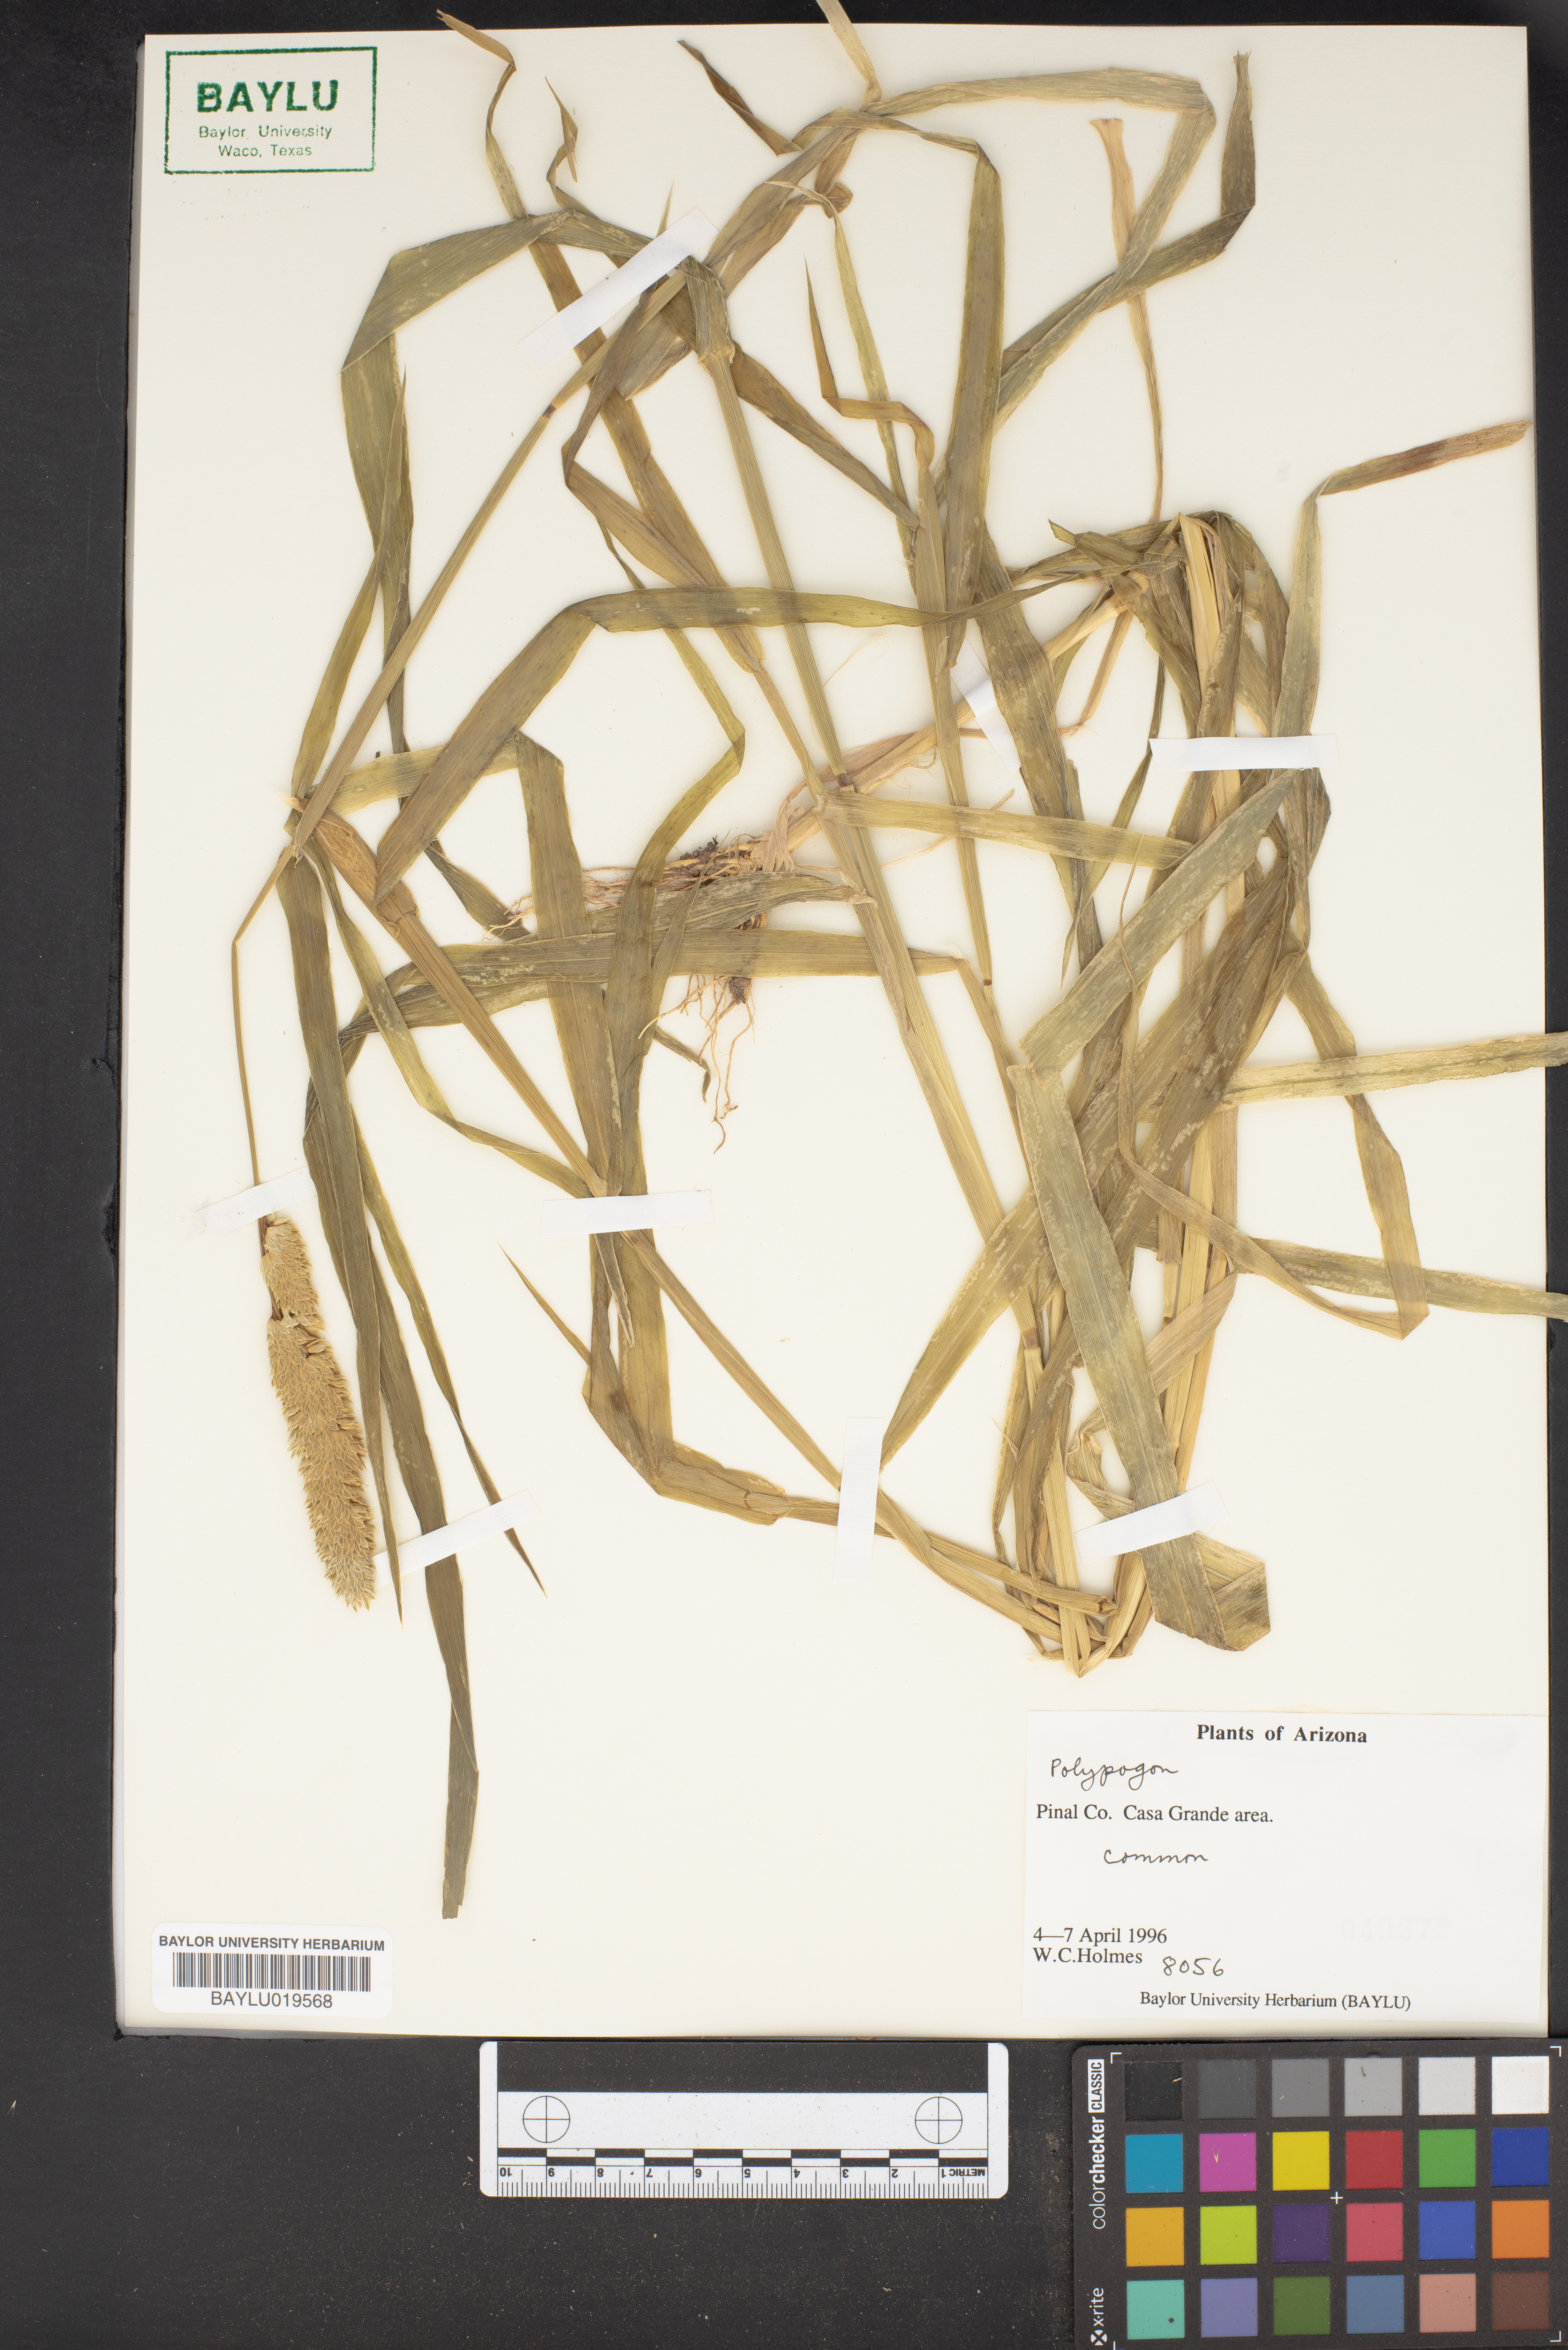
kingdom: Plantae
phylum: Tracheophyta
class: Liliopsida
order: Poales
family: Poaceae
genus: Polypogon
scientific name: Polypogon
